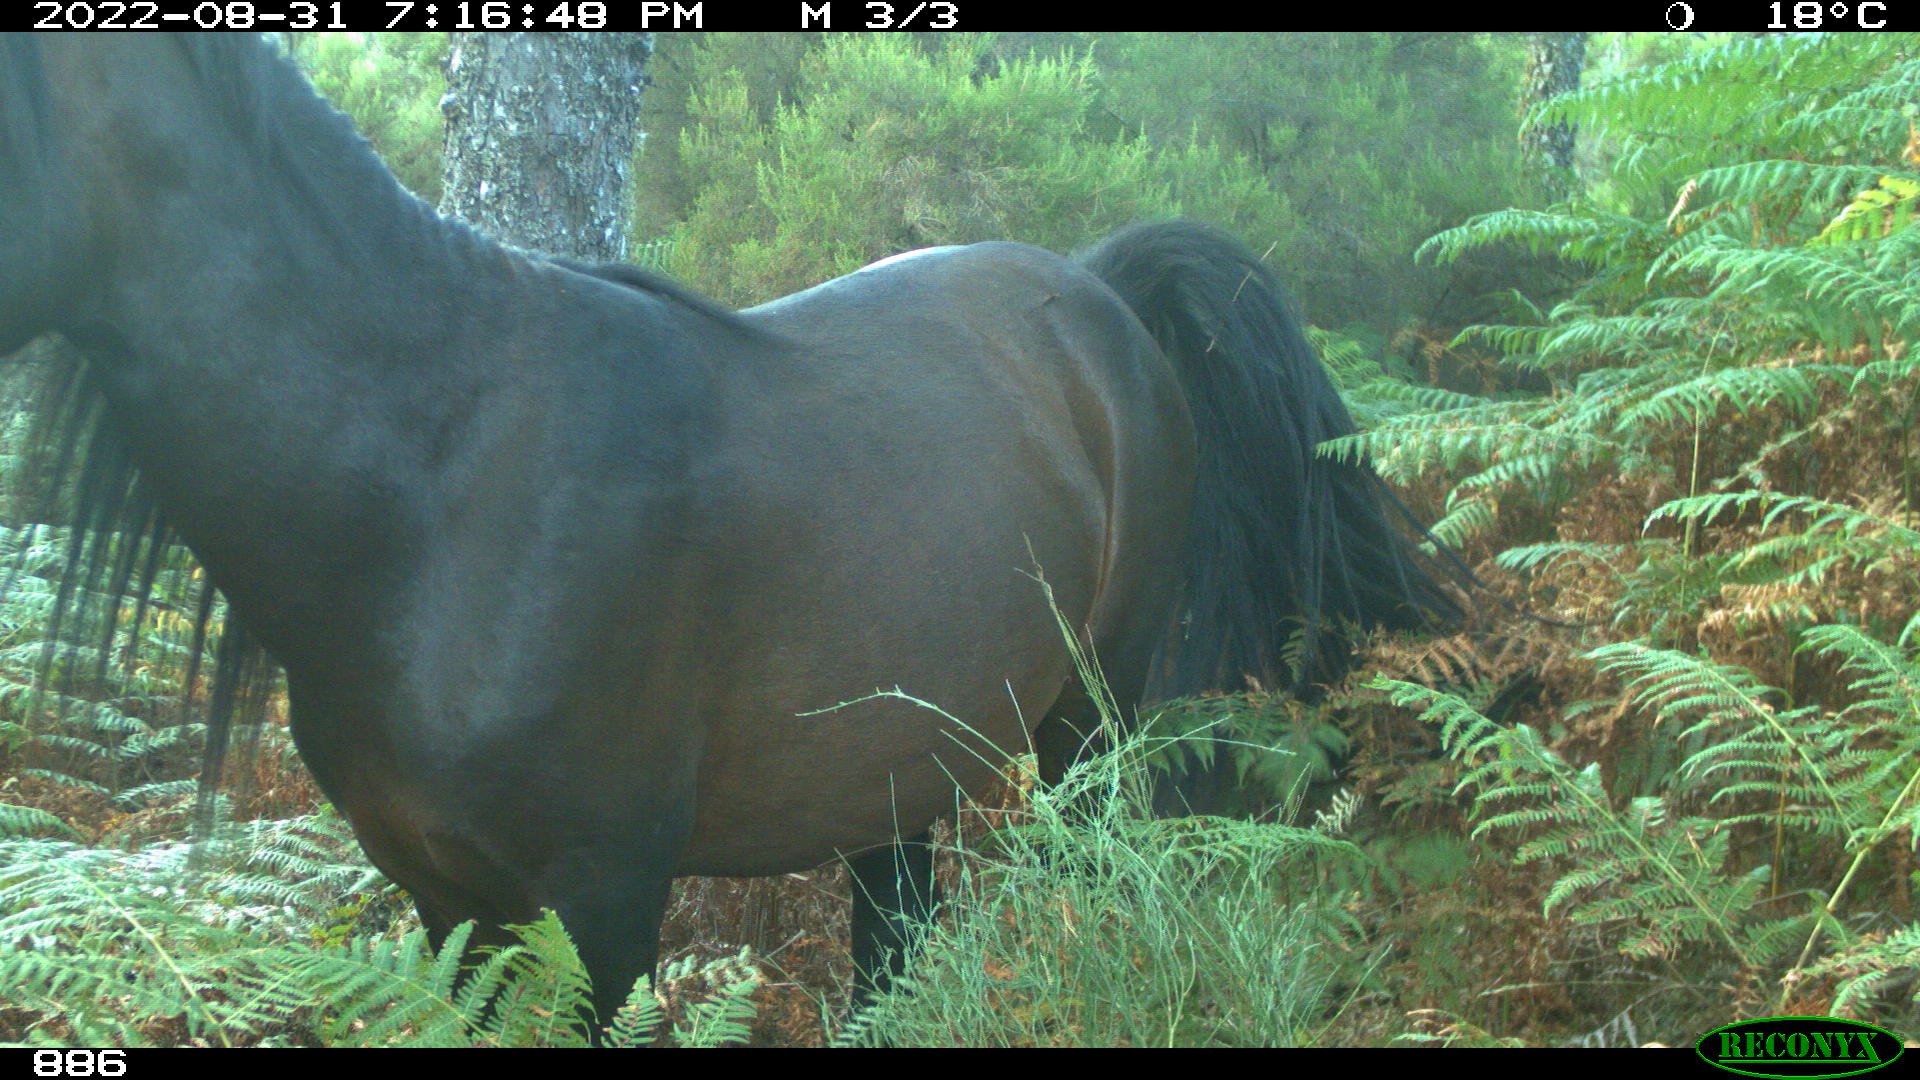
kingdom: Animalia
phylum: Chordata
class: Mammalia
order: Perissodactyla
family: Equidae
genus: Equus
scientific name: Equus caballus
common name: Horse
